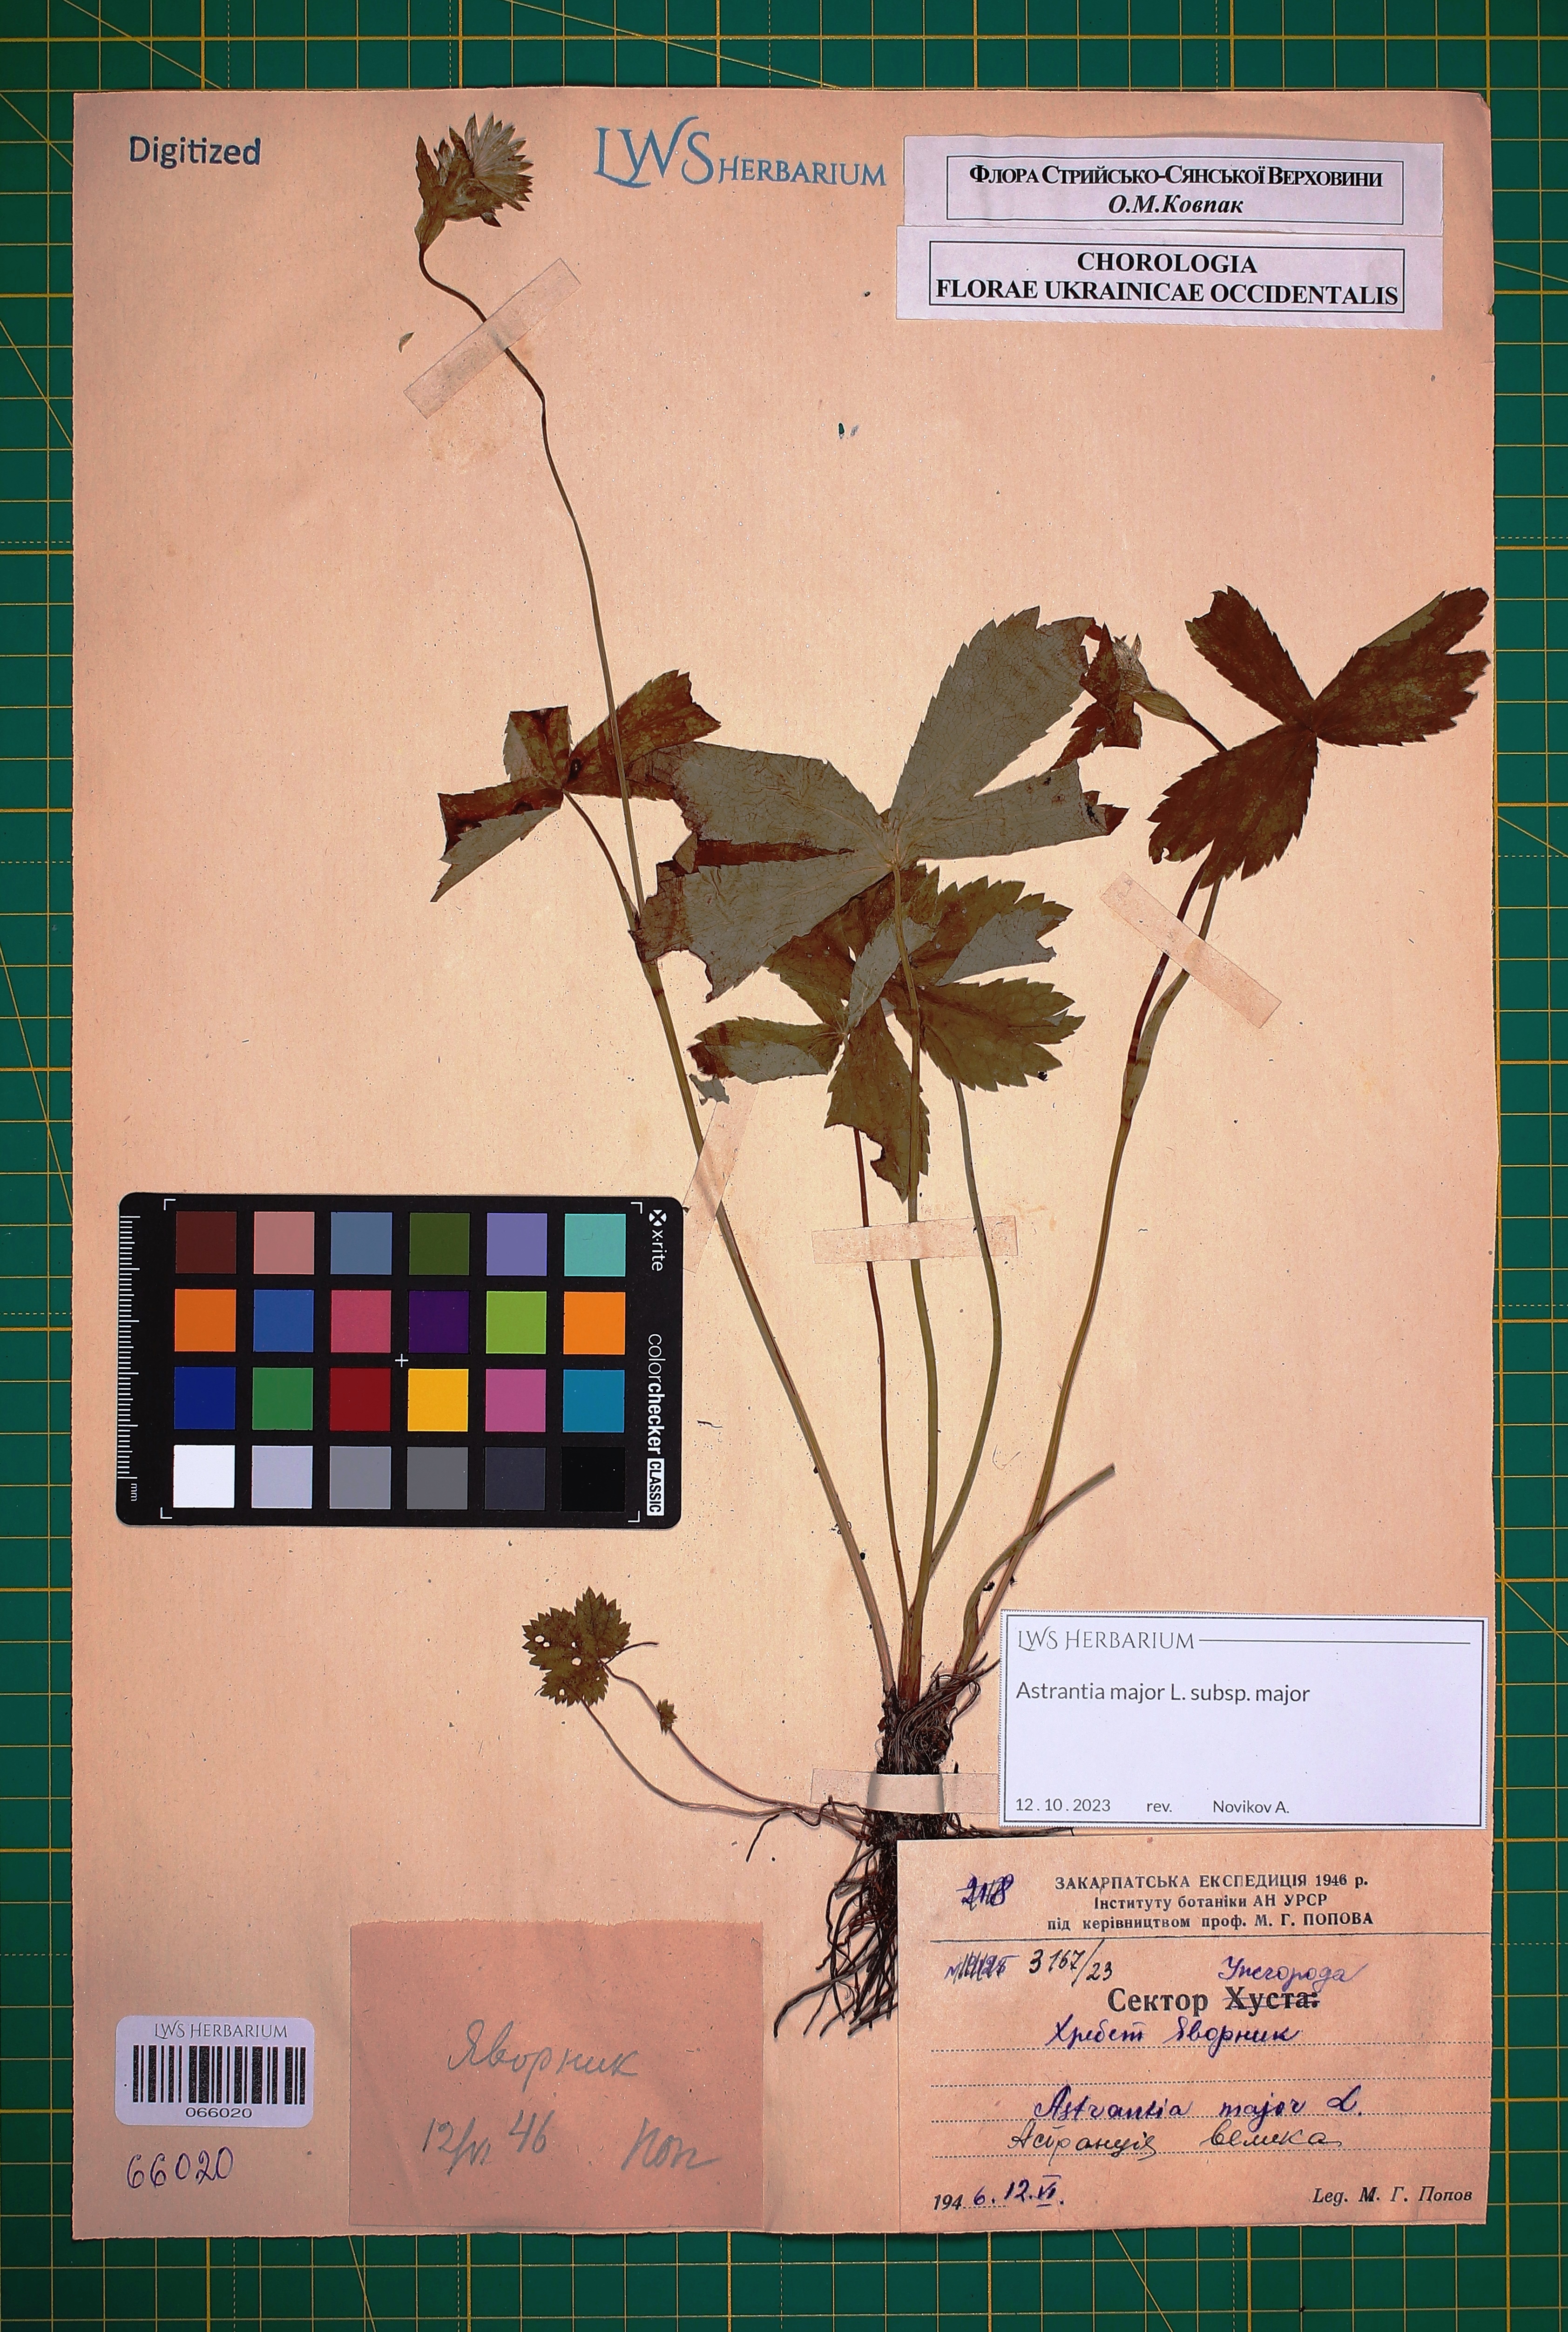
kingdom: Plantae
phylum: Tracheophyta
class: Magnoliopsida
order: Apiales
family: Apiaceae
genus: Astrantia
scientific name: Astrantia major
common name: Greater masterwort
